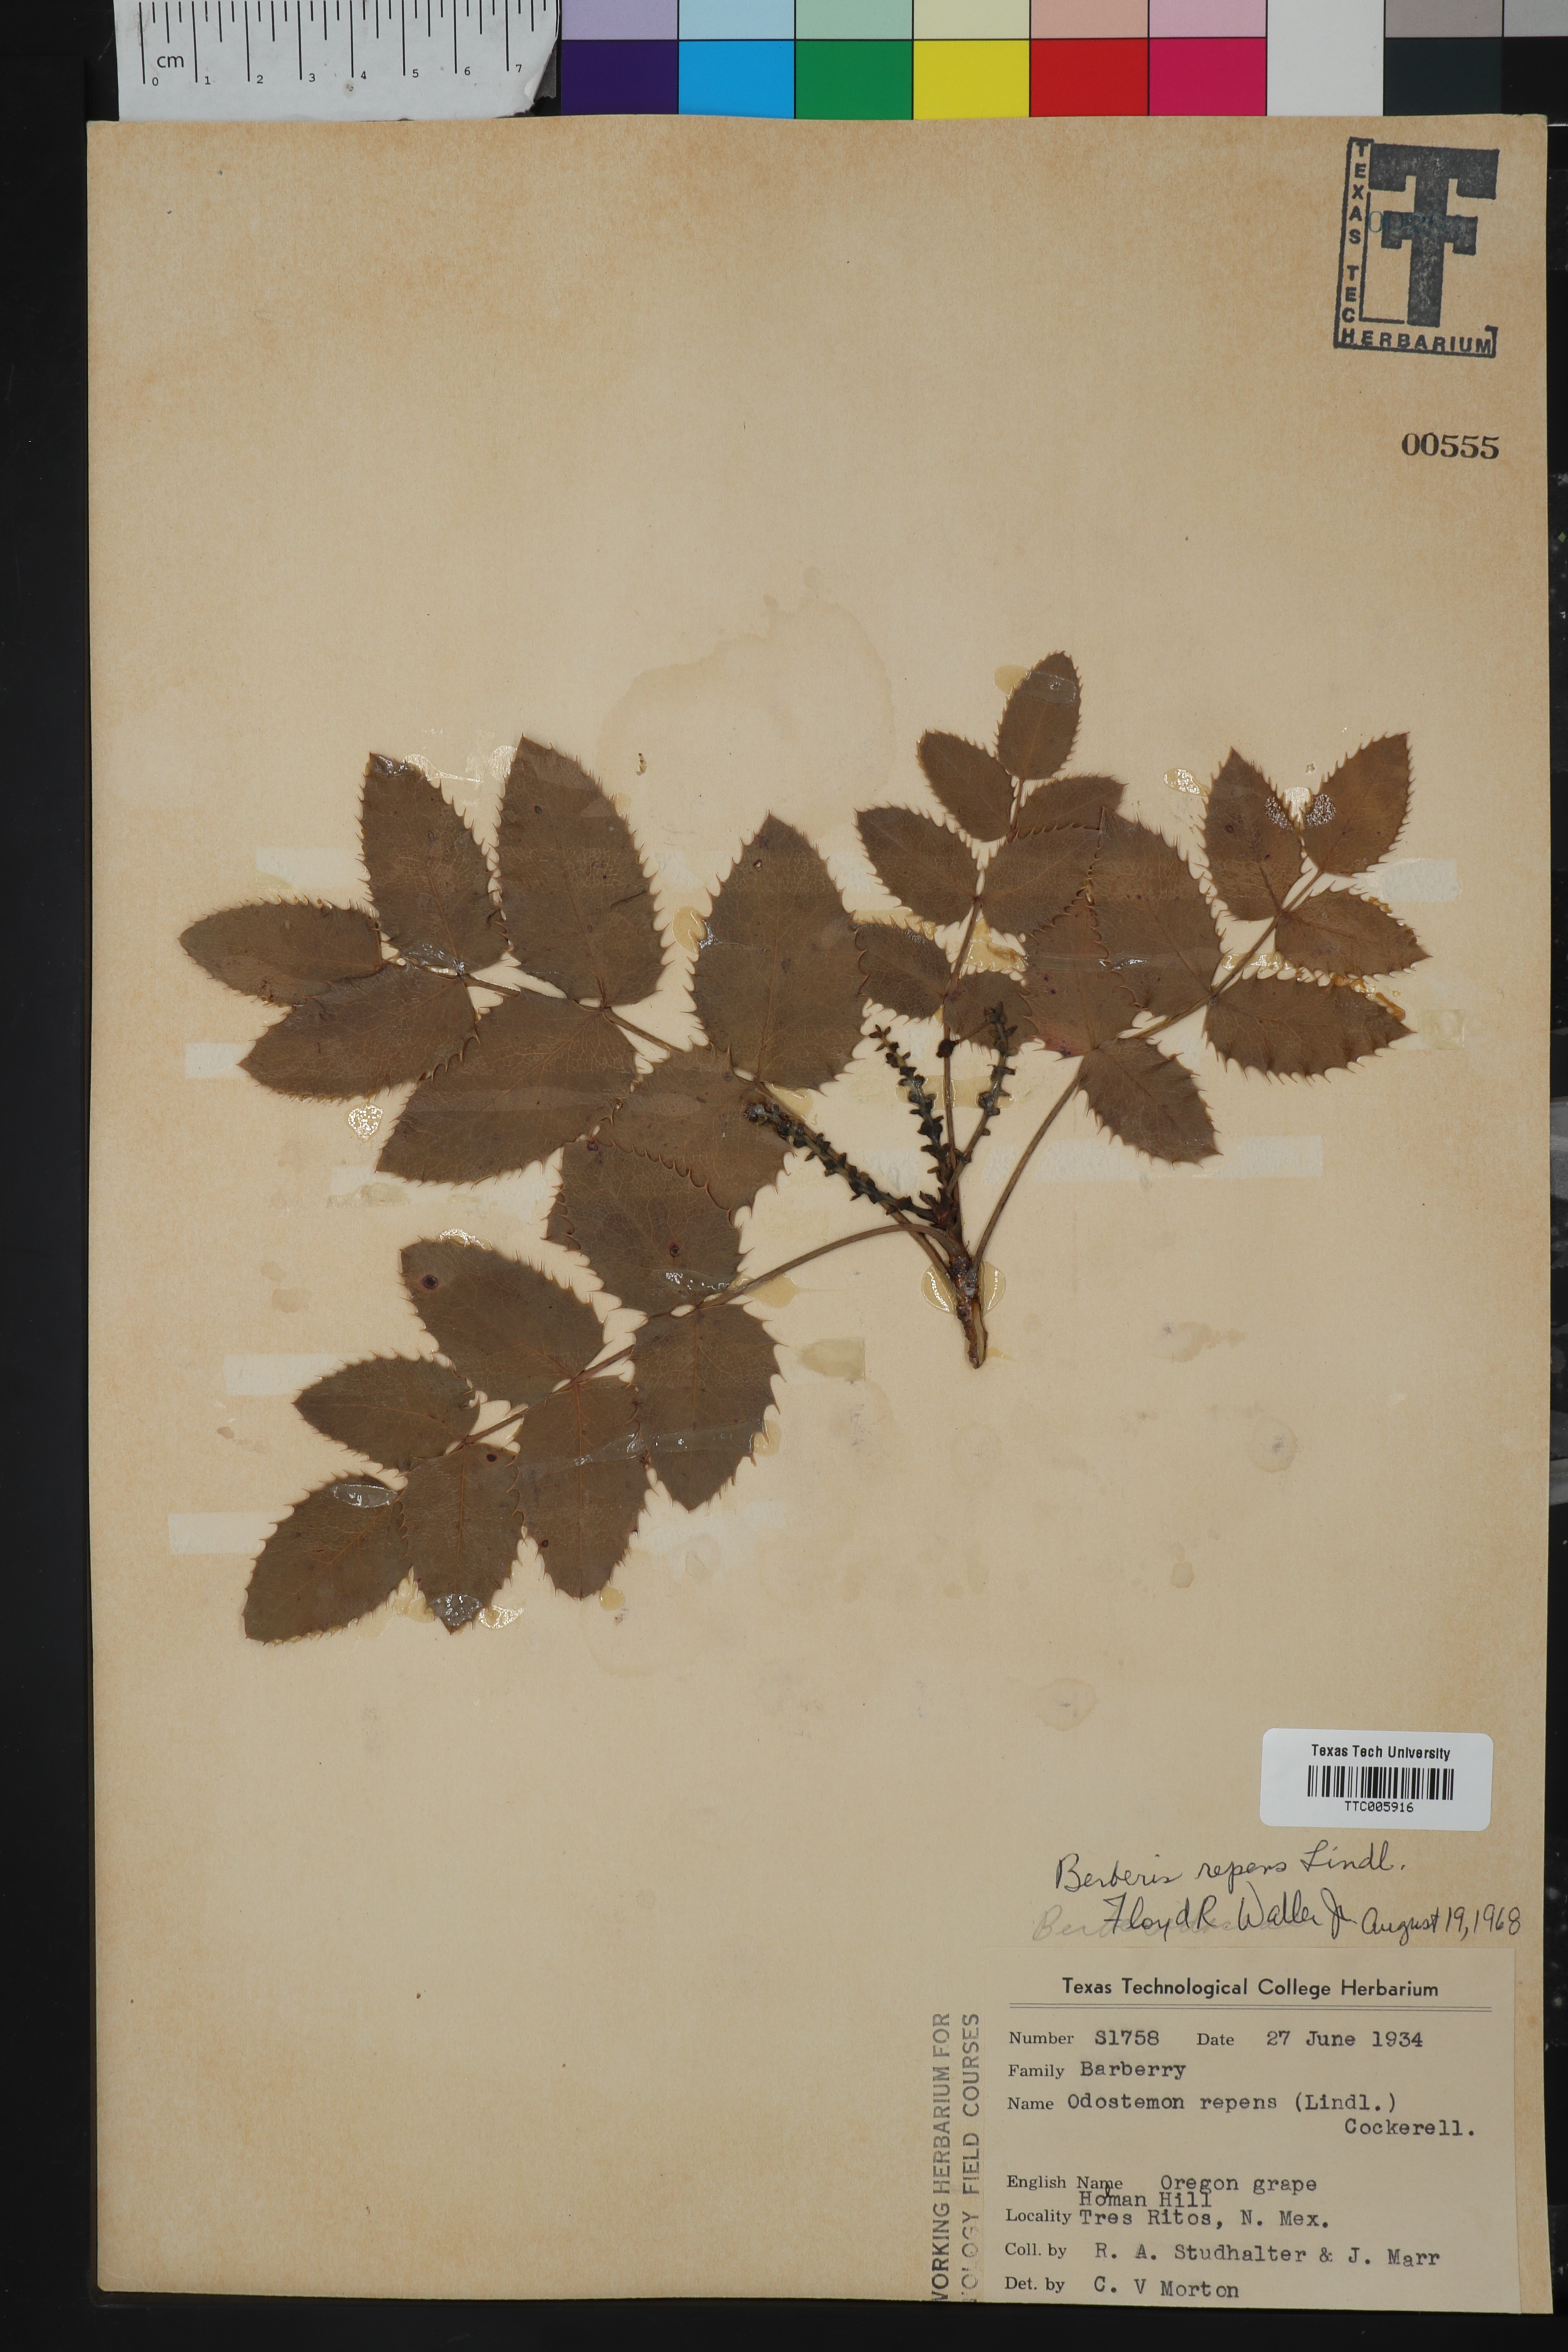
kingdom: Plantae
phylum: Tracheophyta
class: Magnoliopsida
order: Ranunculales
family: Berberidaceae
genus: Mahonia
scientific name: Mahonia repens
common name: Creeping oregon-grape
